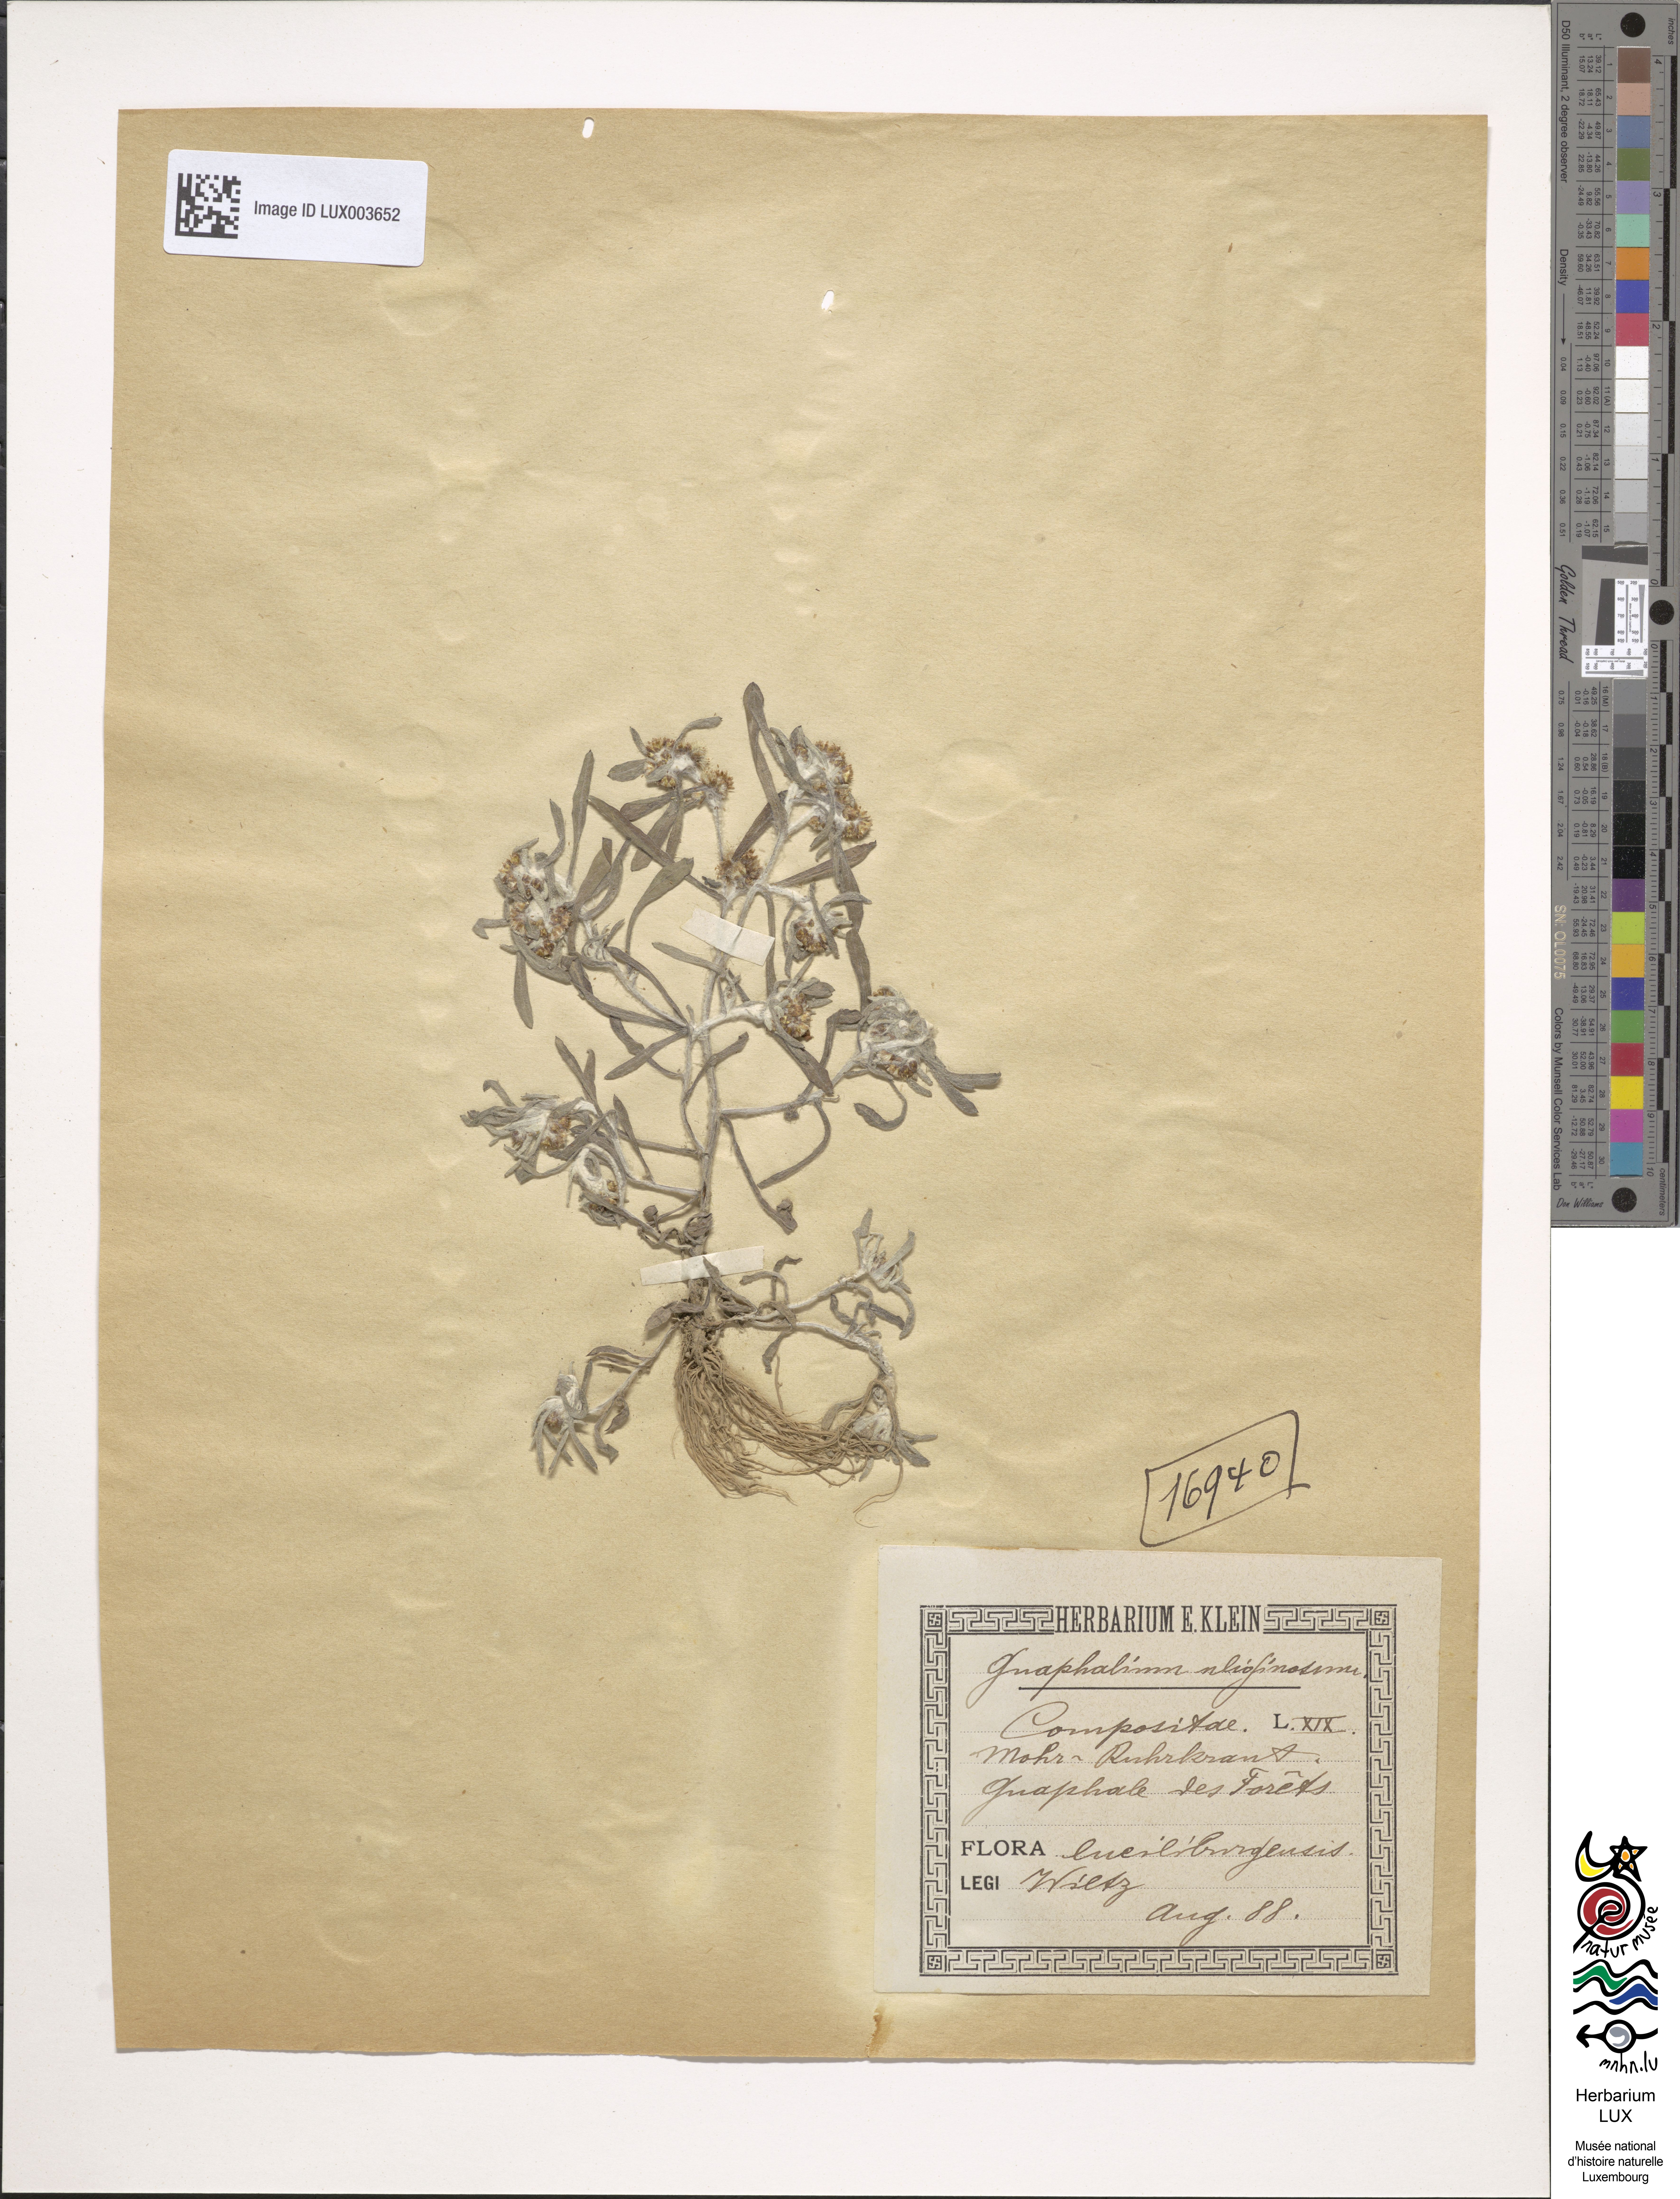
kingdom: Plantae
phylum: Tracheophyta
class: Magnoliopsida
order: Asterales
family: Asteraceae
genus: Gnaphalium
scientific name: Gnaphalium uliginosum
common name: Marsh cudweed
